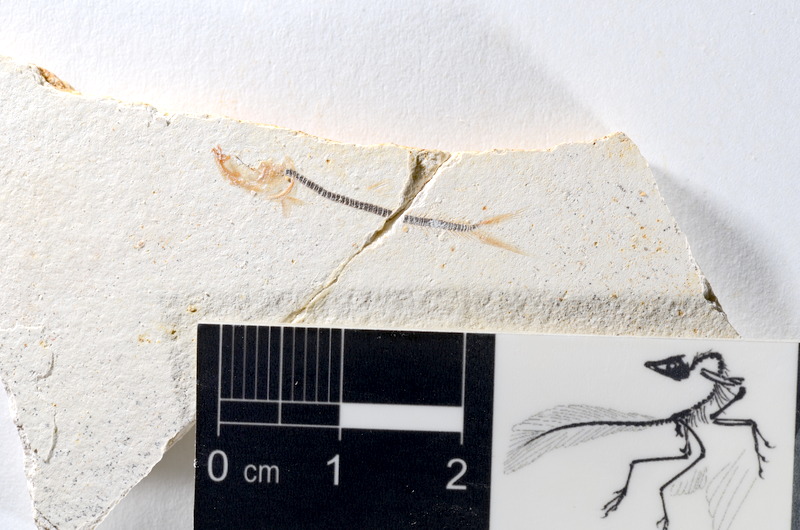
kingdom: Animalia
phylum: Chordata
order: Salmoniformes
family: Orthogonikleithridae
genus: Orthogonikleithrus
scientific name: Orthogonikleithrus hoelli
